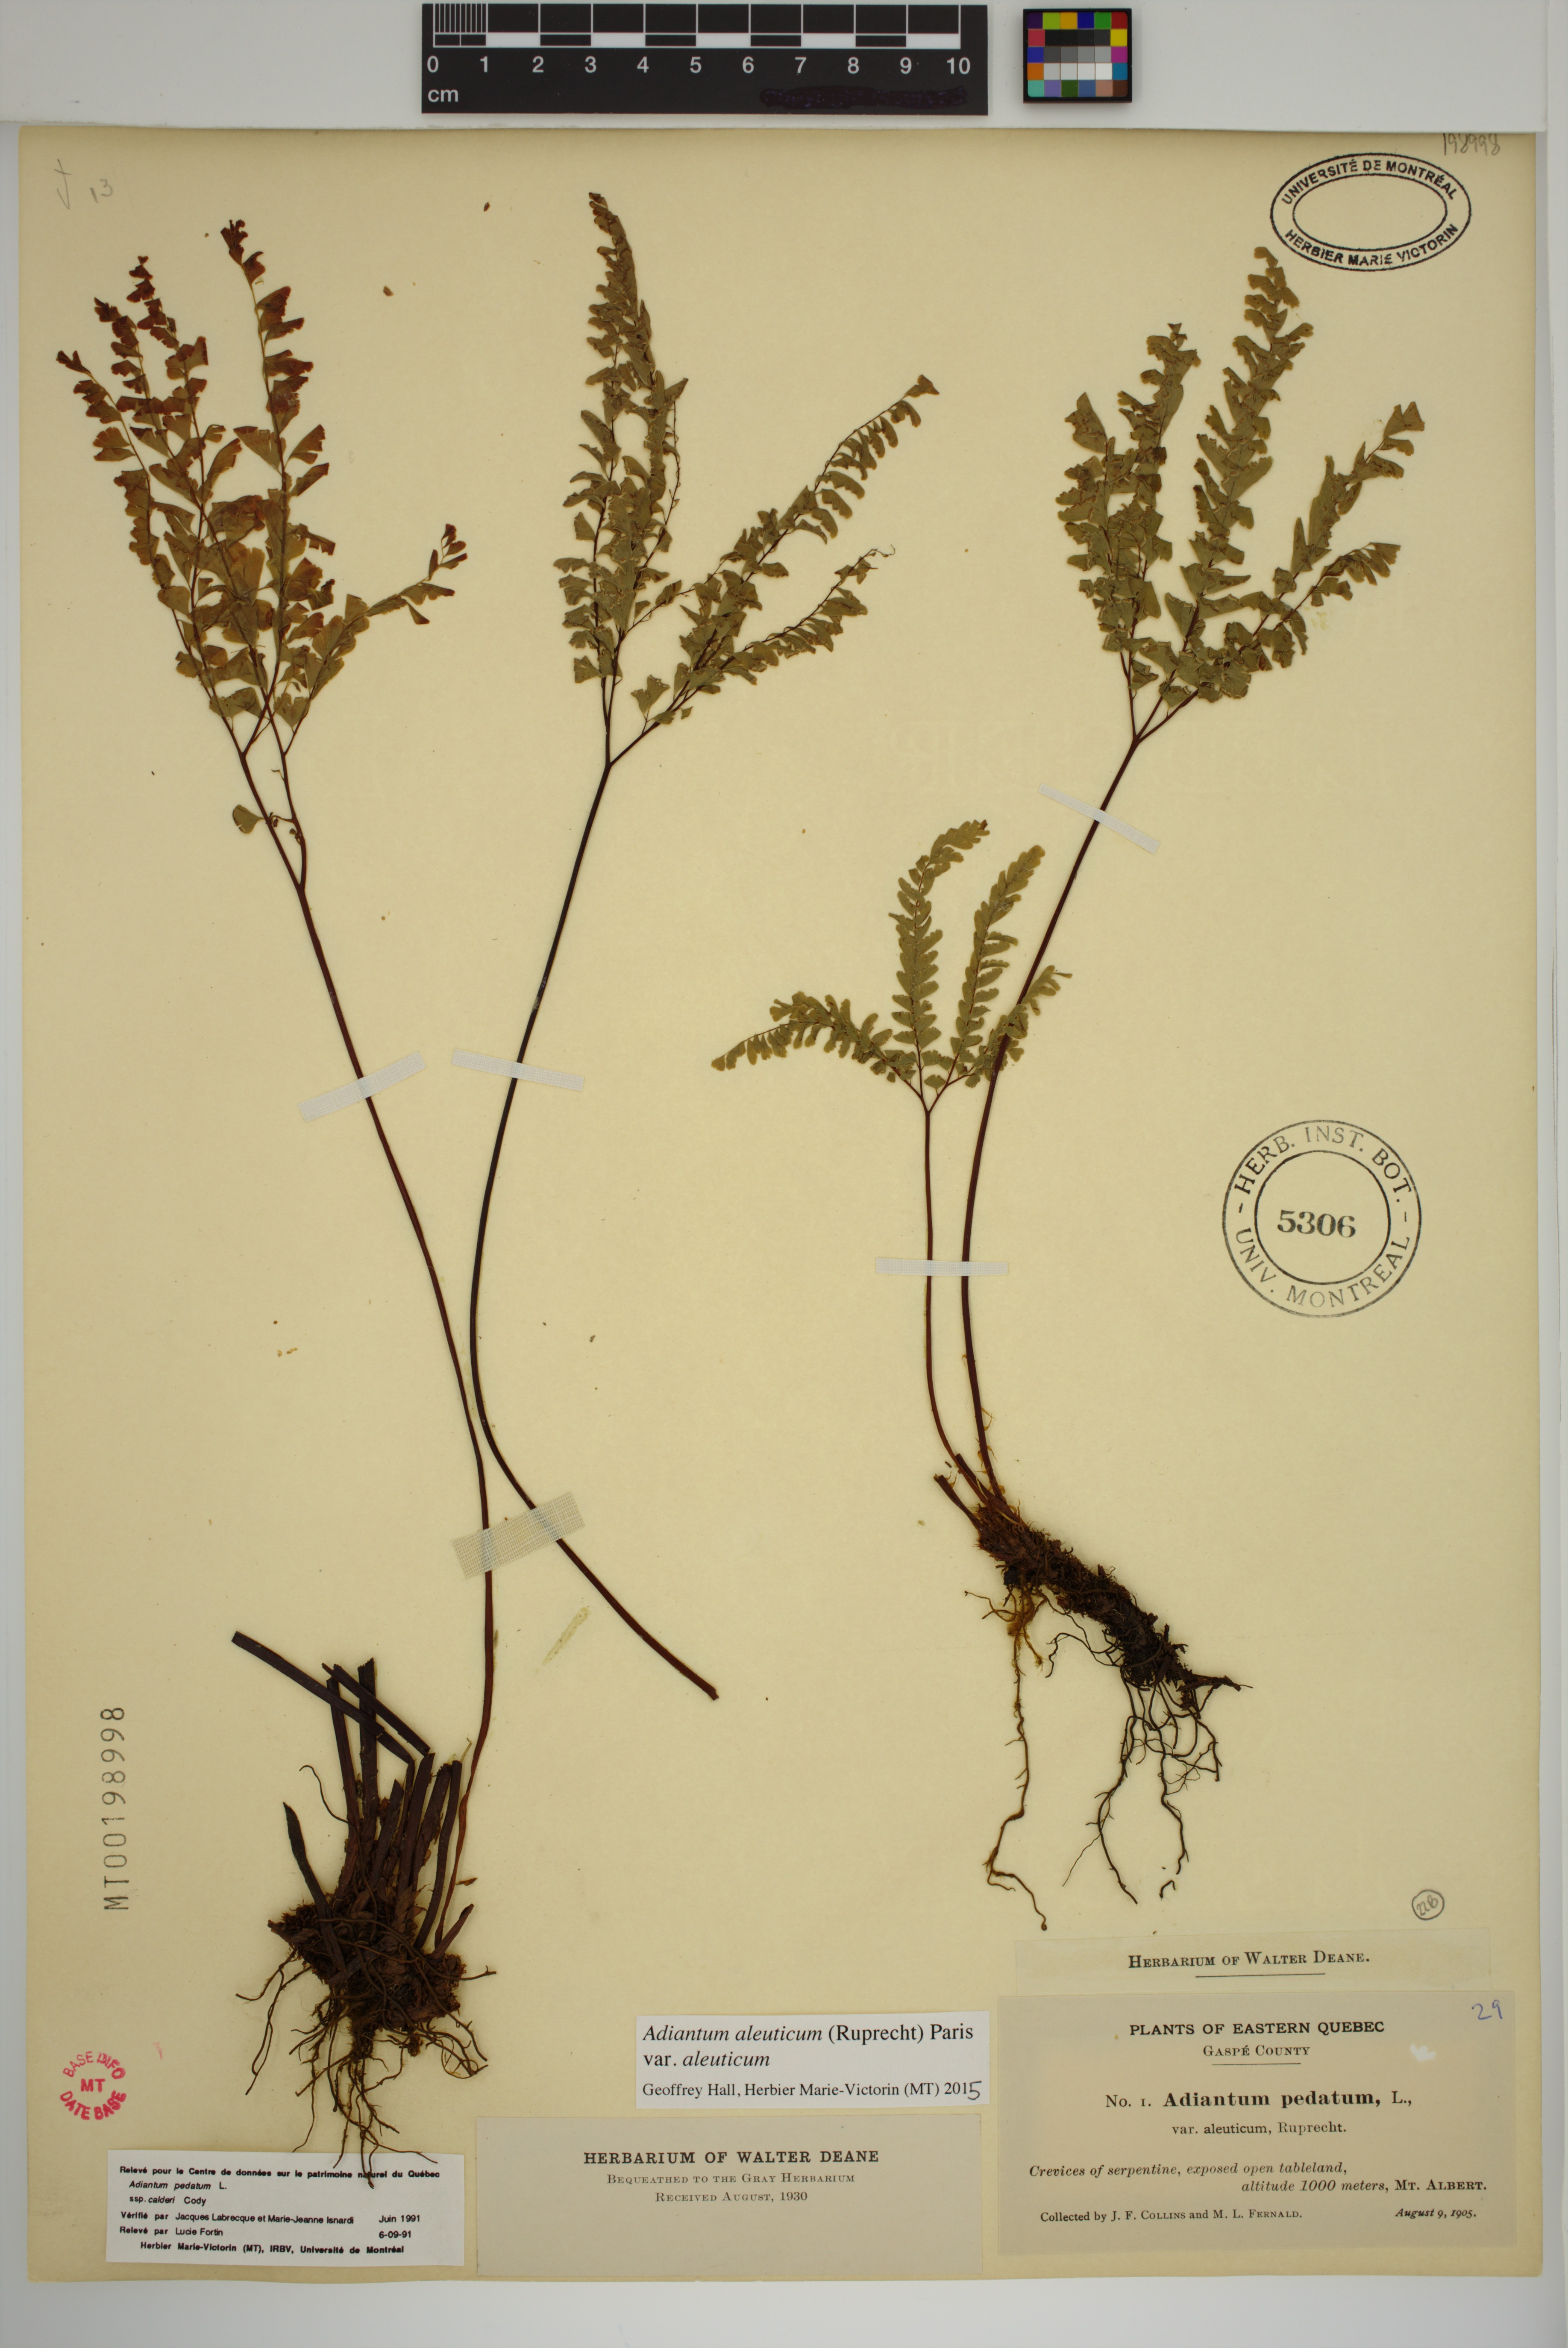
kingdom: Plantae
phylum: Tracheophyta
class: Polypodiopsida
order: Polypodiales
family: Pteridaceae
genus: Adiantum
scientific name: Adiantum aleuticum
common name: Aleutian maidenhair fern
